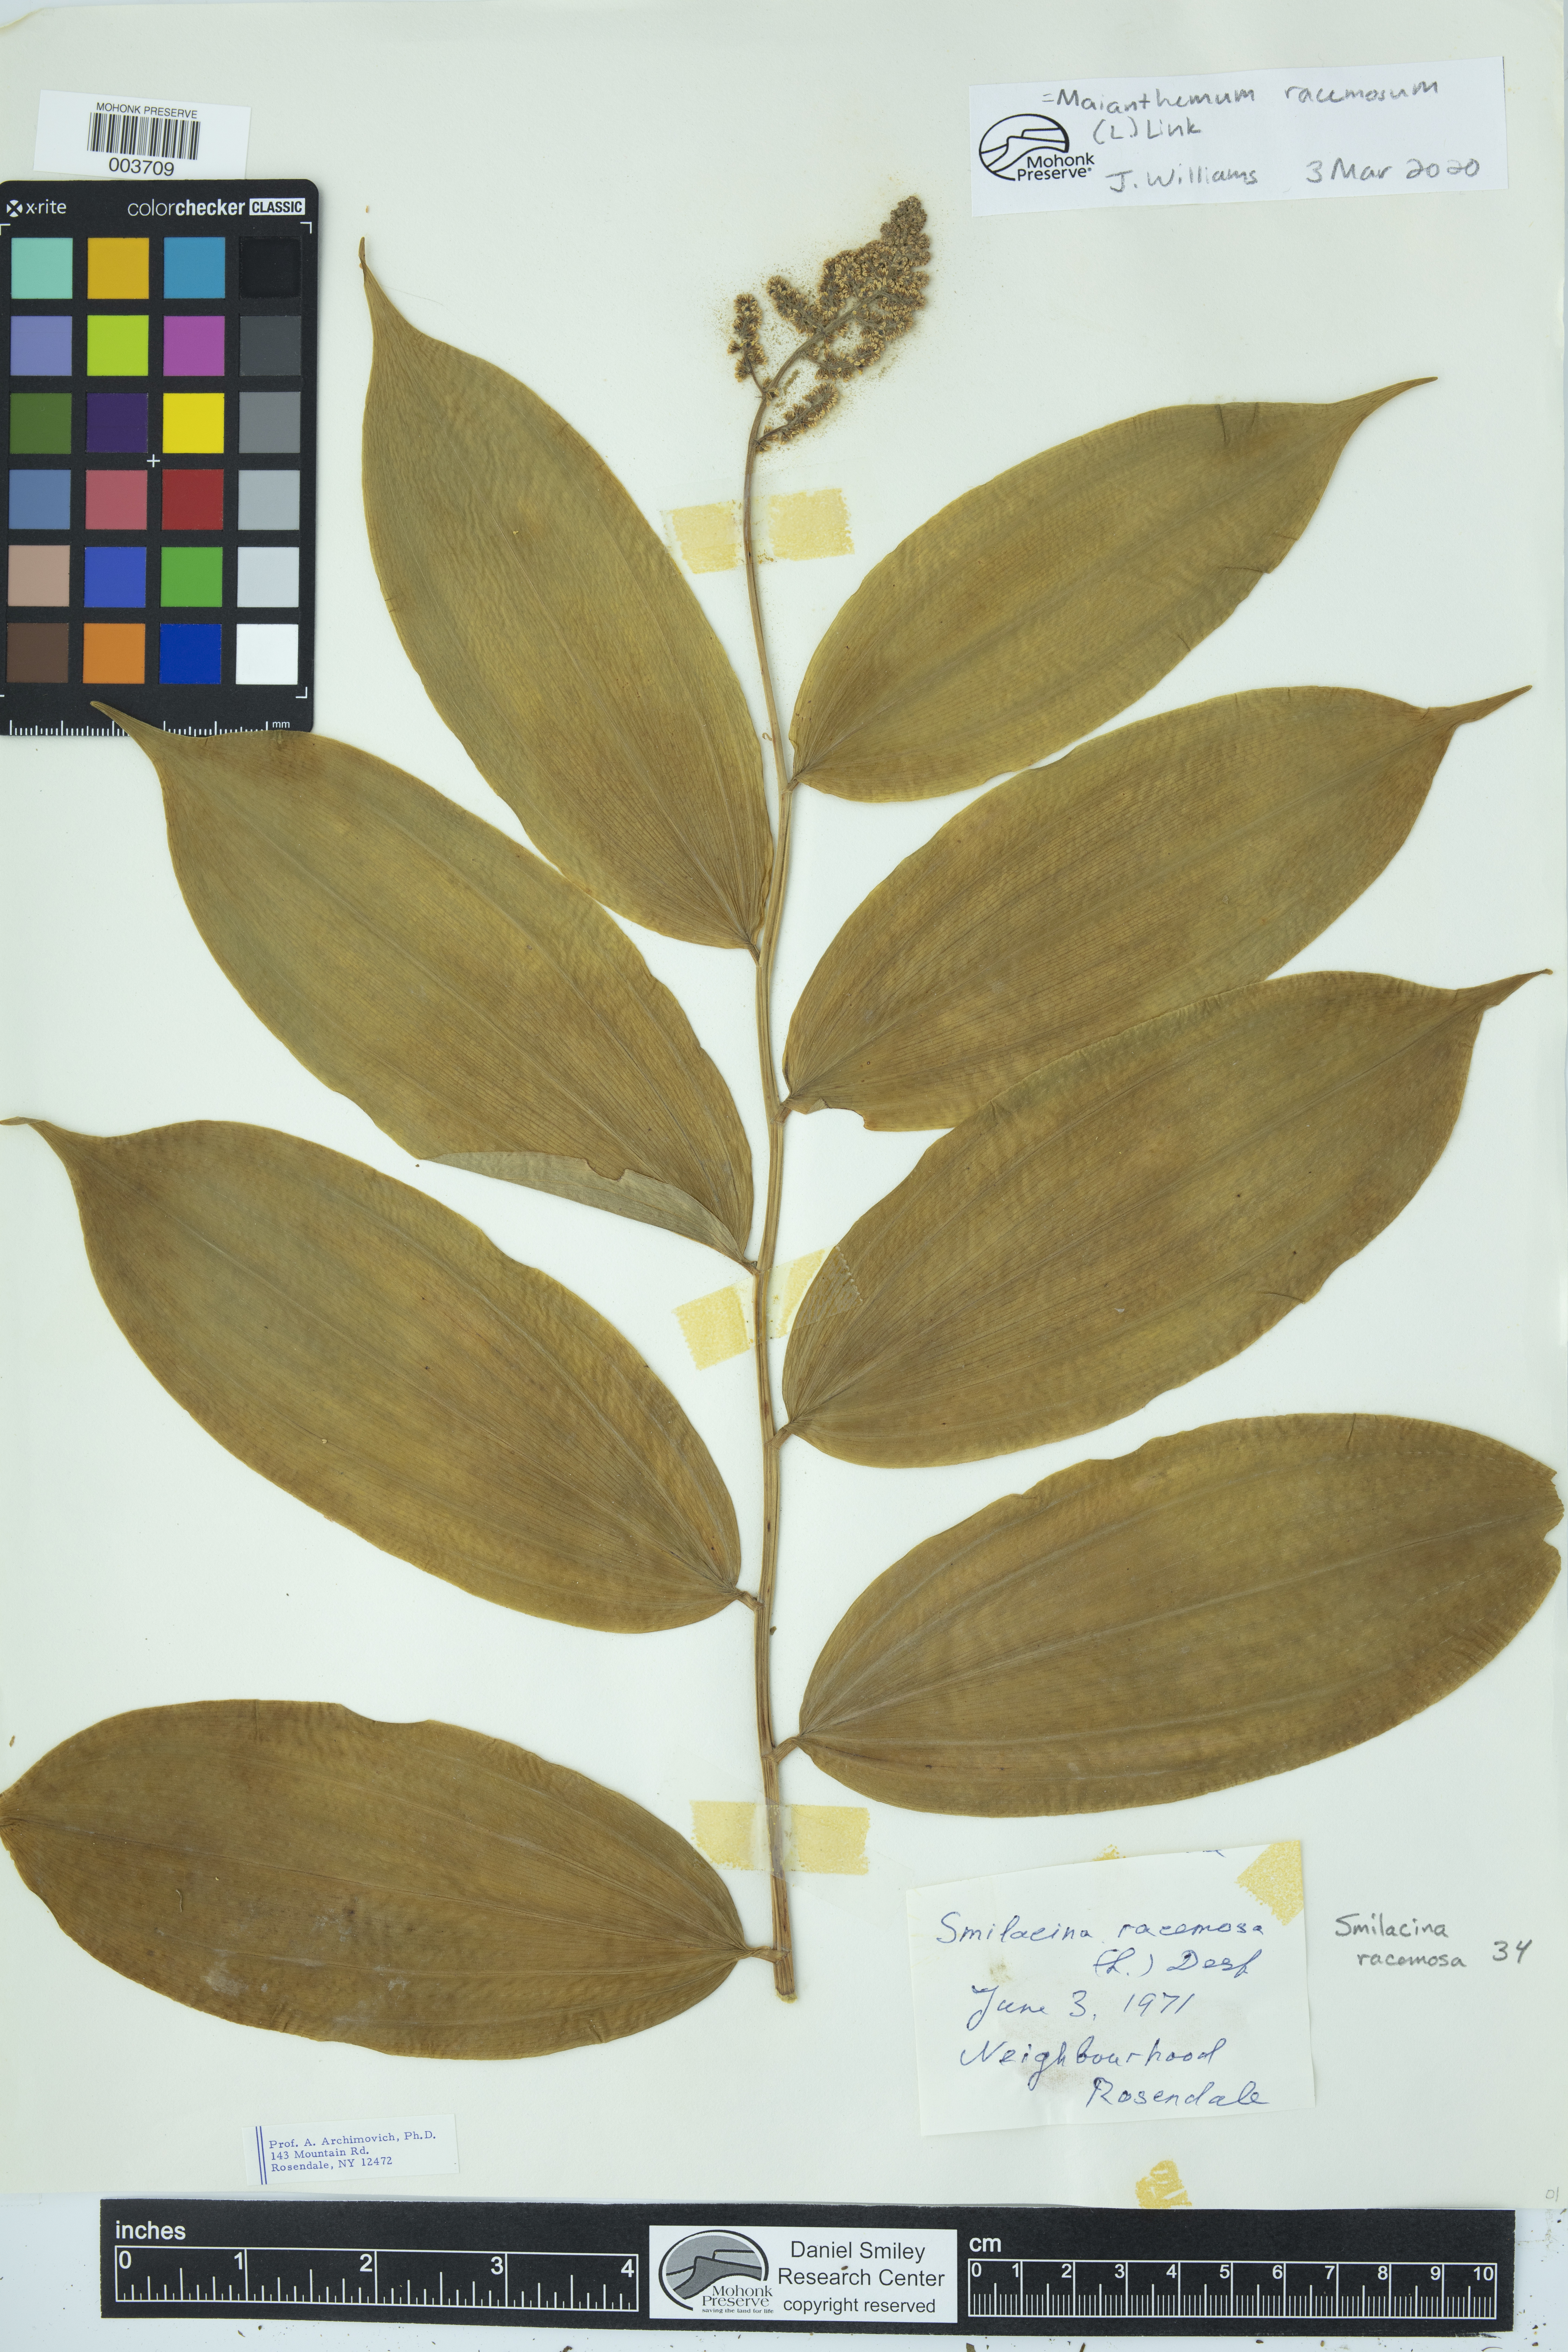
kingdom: Plantae
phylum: Tracheophyta
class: Liliopsida
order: Asparagales
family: Asparagaceae
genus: Maianthemum
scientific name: Maianthemum racemosum
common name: False spikenard
